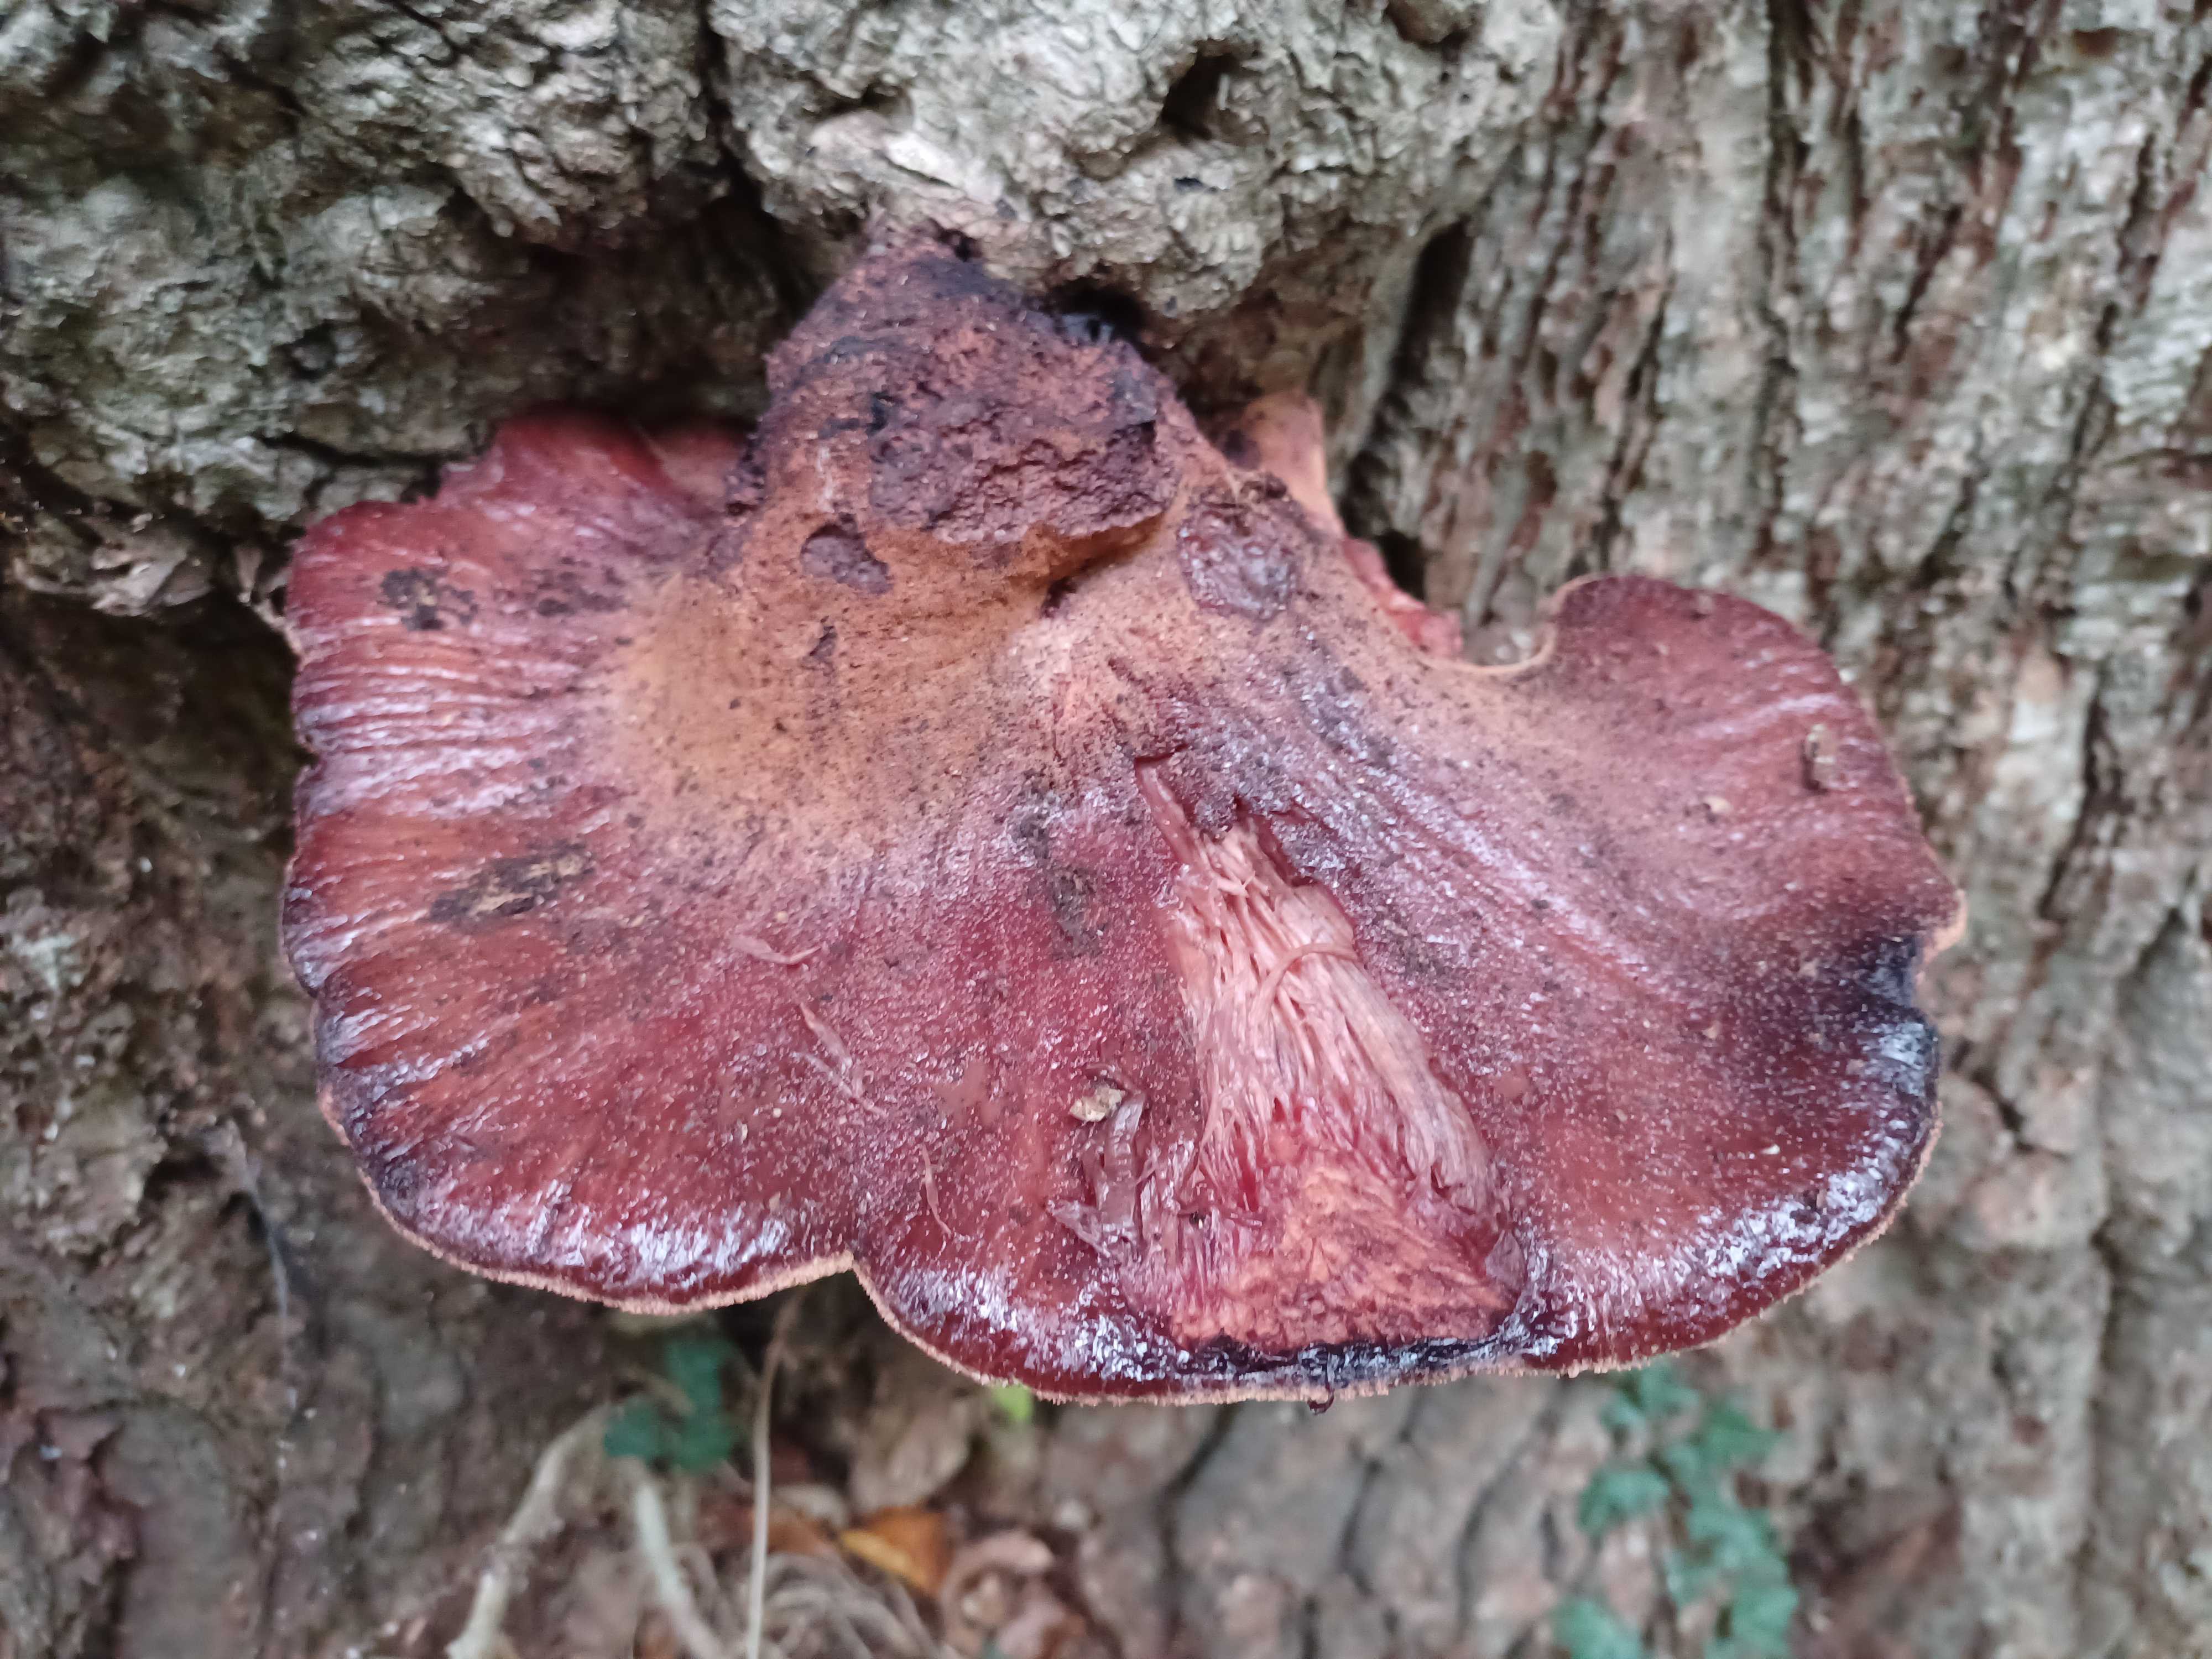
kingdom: Fungi
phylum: Basidiomycota
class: Agaricomycetes
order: Agaricales
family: Fistulinaceae
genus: Fistulina
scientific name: Fistulina hepatica
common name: oksetunge
